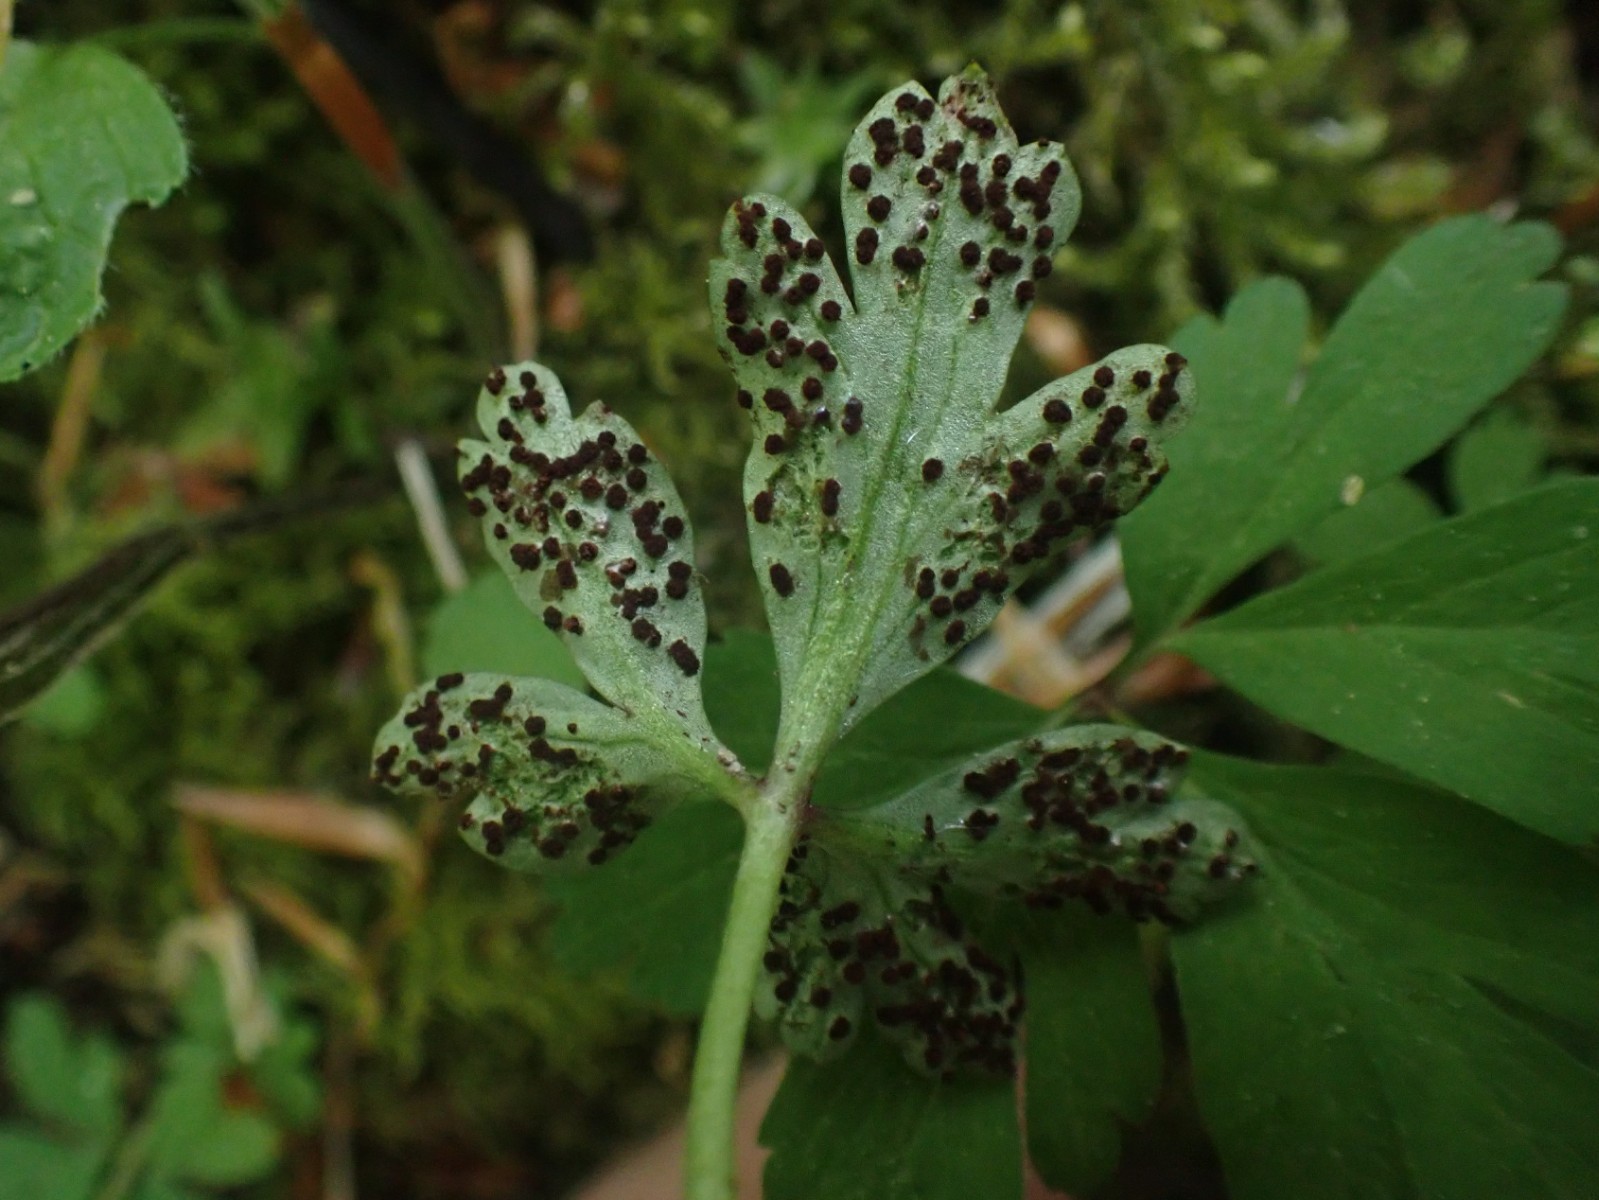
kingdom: Fungi
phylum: Basidiomycota
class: Pucciniomycetes
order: Pucciniales
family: Tranzscheliaceae
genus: Tranzschelia
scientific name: Tranzschelia anemones
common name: anemone-knæksporerust
